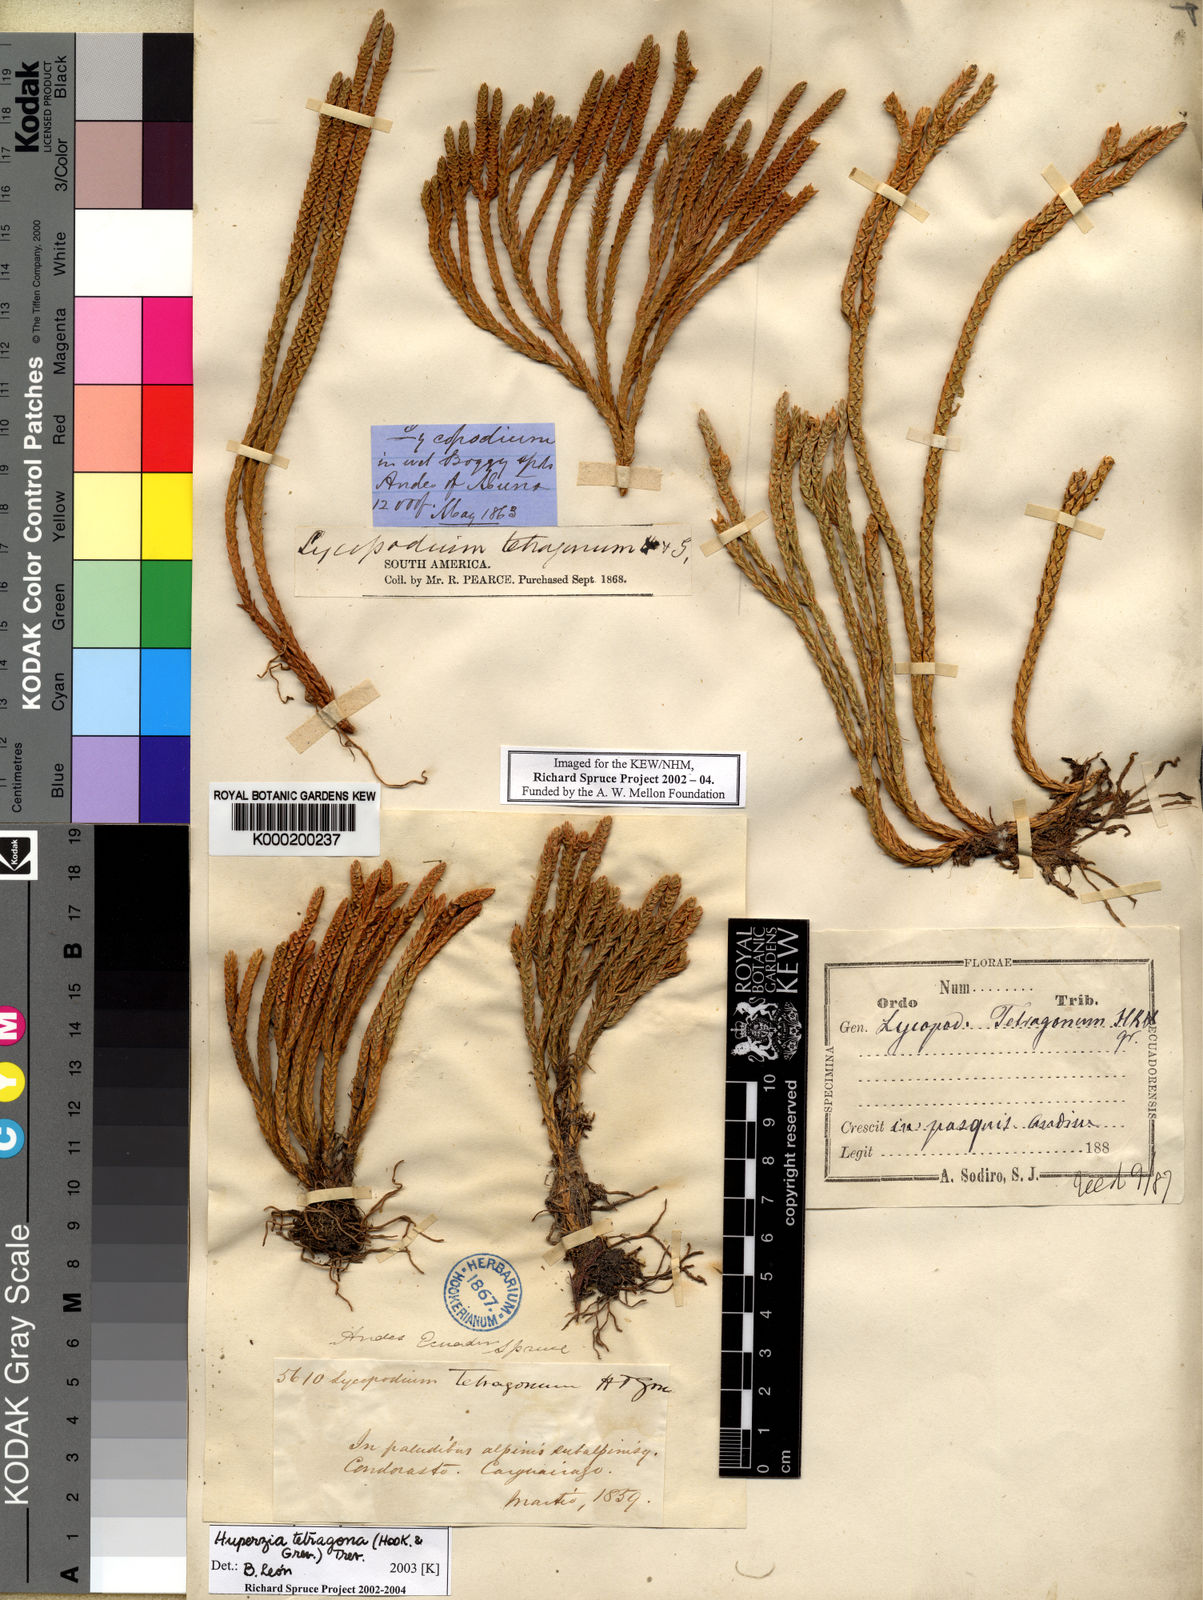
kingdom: Plantae
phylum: Tracheophyta
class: Lycopodiopsida
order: Lycopodiales
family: Lycopodiaceae
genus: Phlegmariurus
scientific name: Phlegmariurus tetragonus
